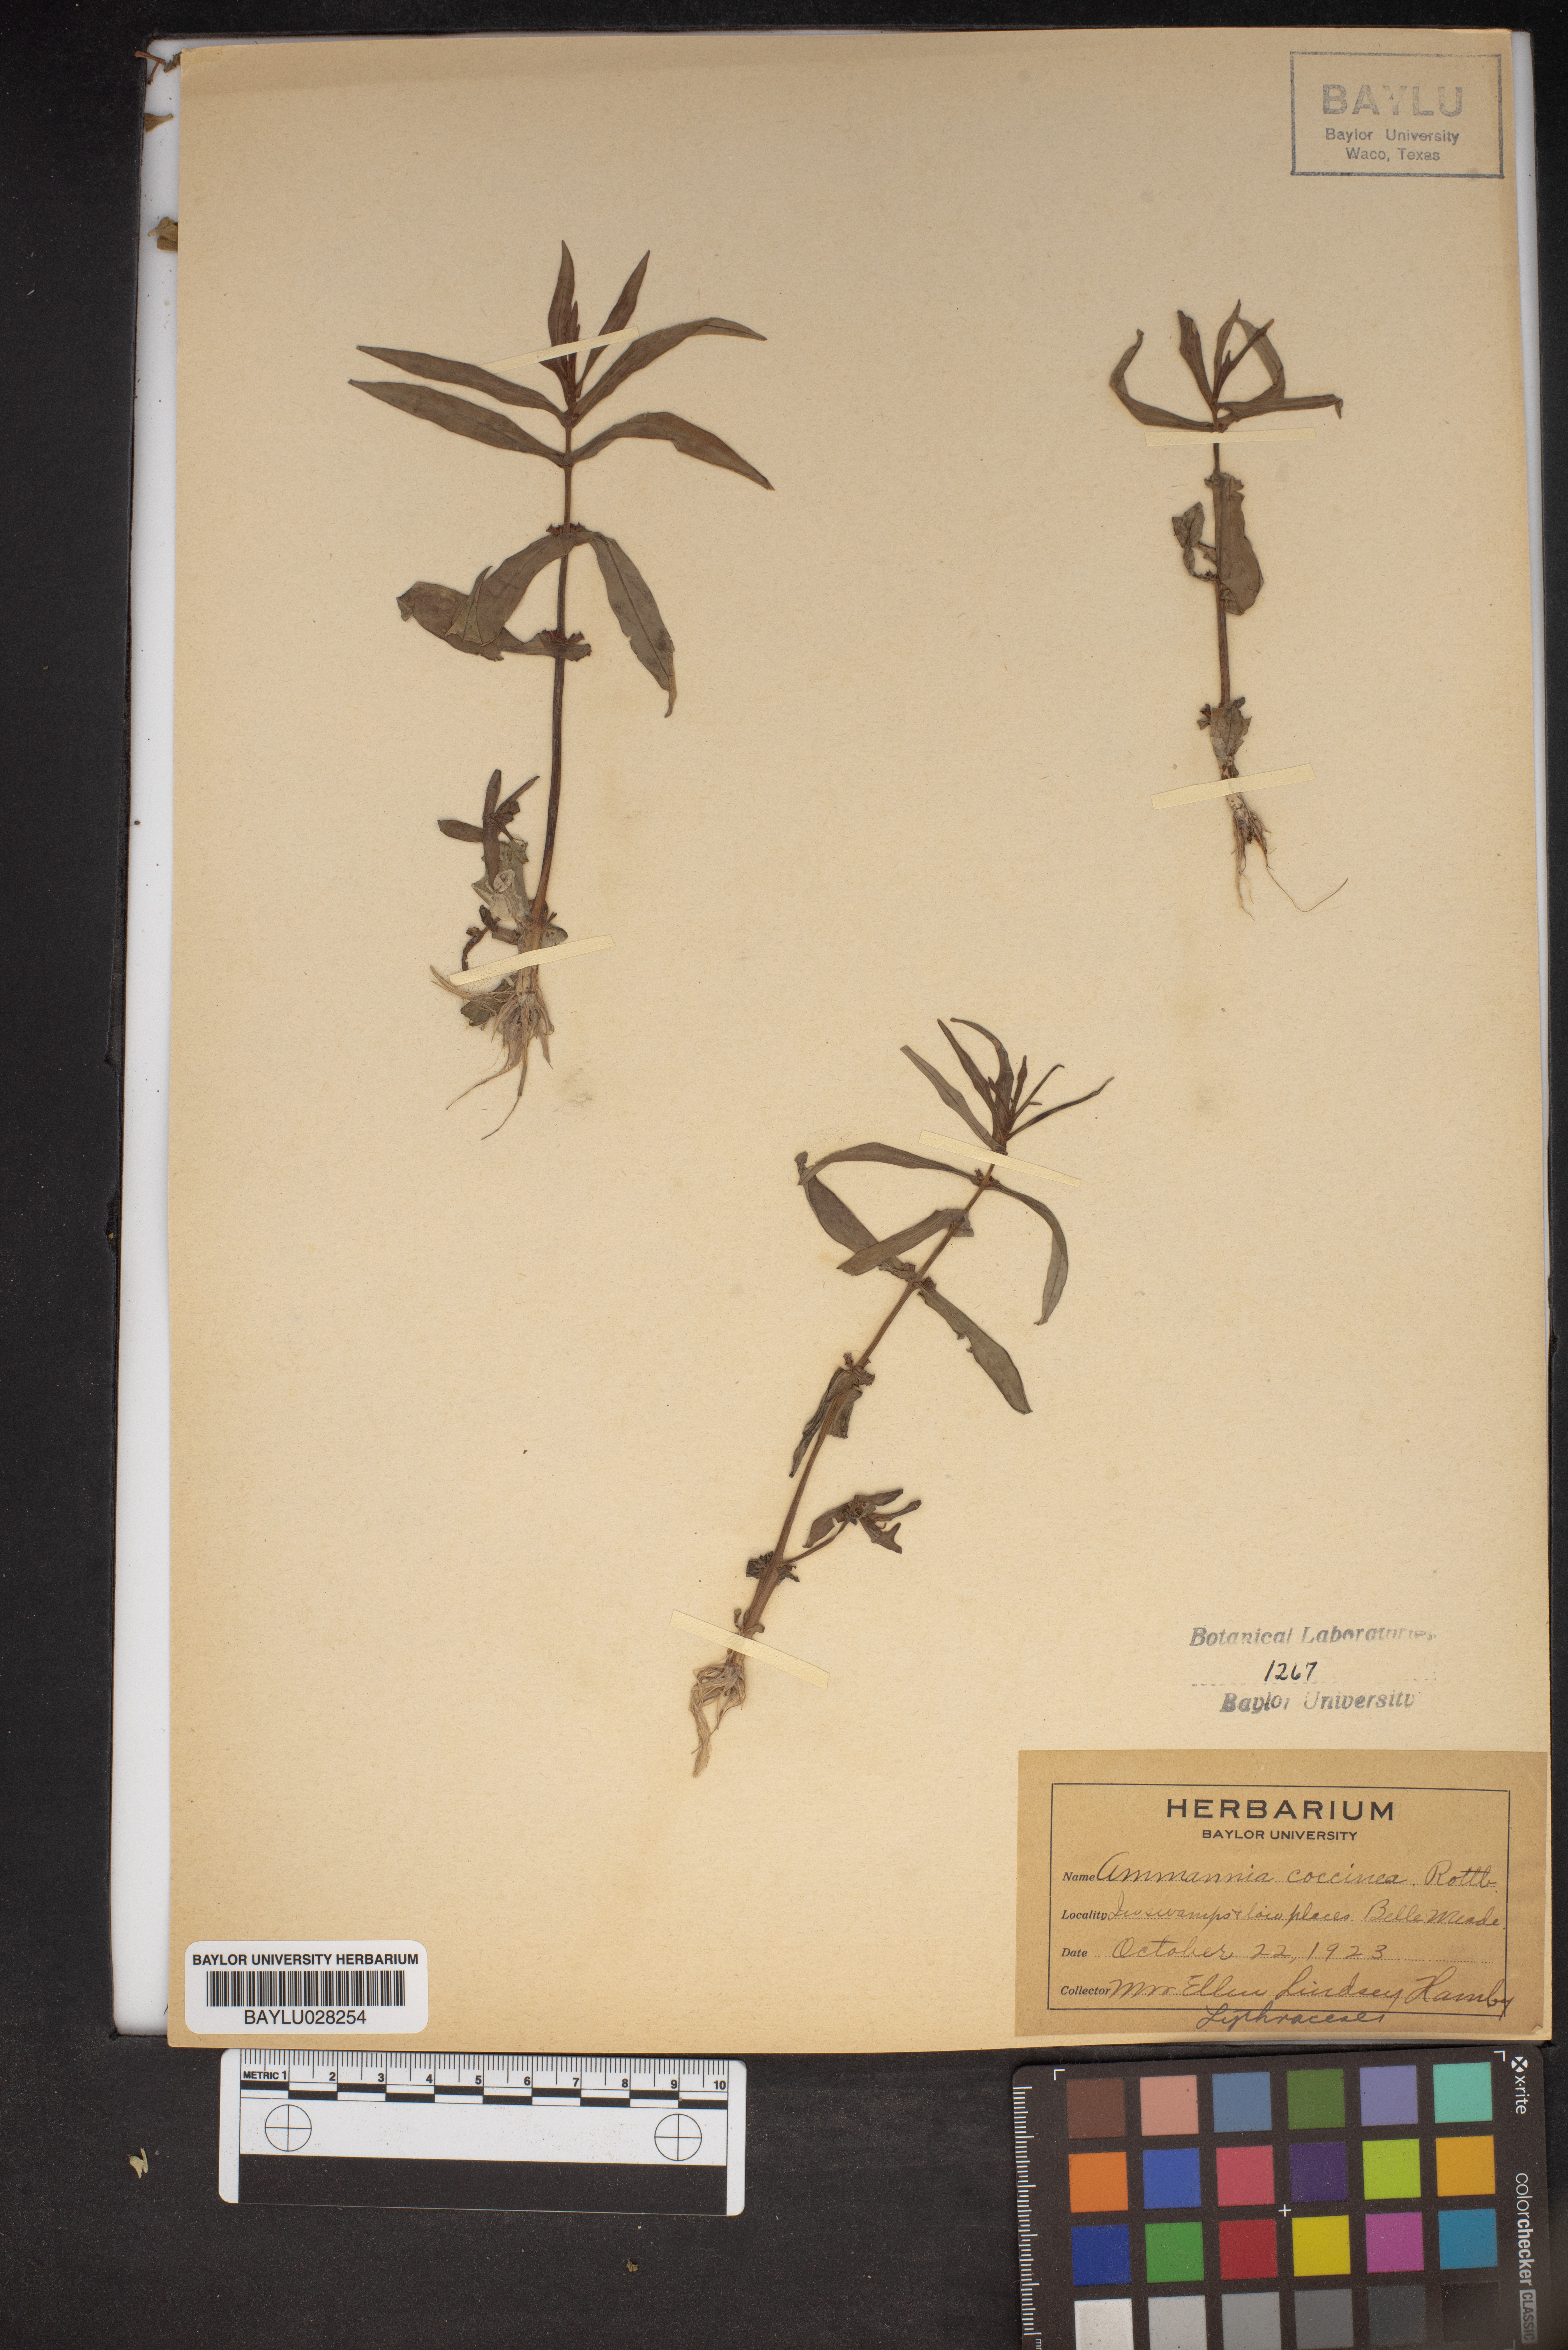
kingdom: Plantae
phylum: Tracheophyta
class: Magnoliopsida
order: Myrtales
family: Lythraceae
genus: Ammannia
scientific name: Ammannia coccinea
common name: Valley redstem
